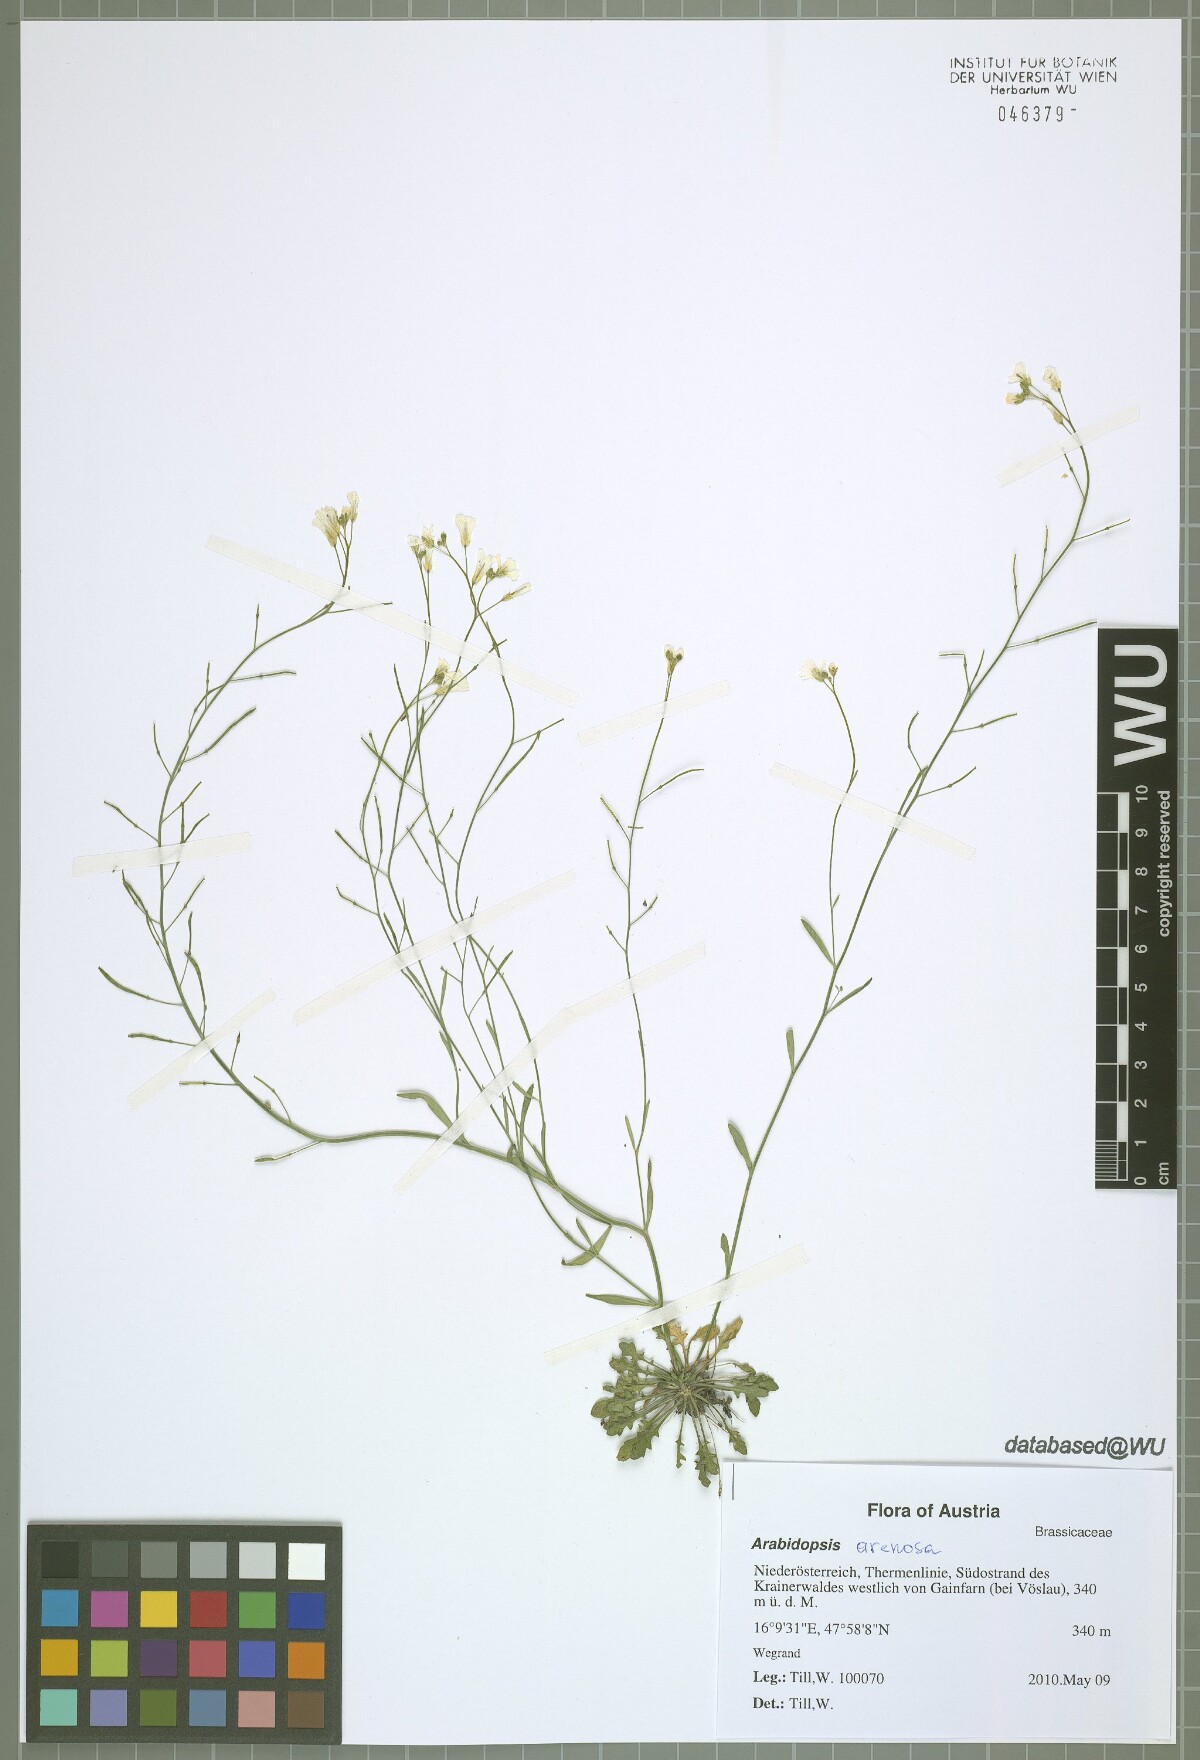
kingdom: Plantae
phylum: Tracheophyta
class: Magnoliopsida
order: Brassicales
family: Brassicaceae
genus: Arabidopsis
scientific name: Arabidopsis arenosa
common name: Sand rock-cress
